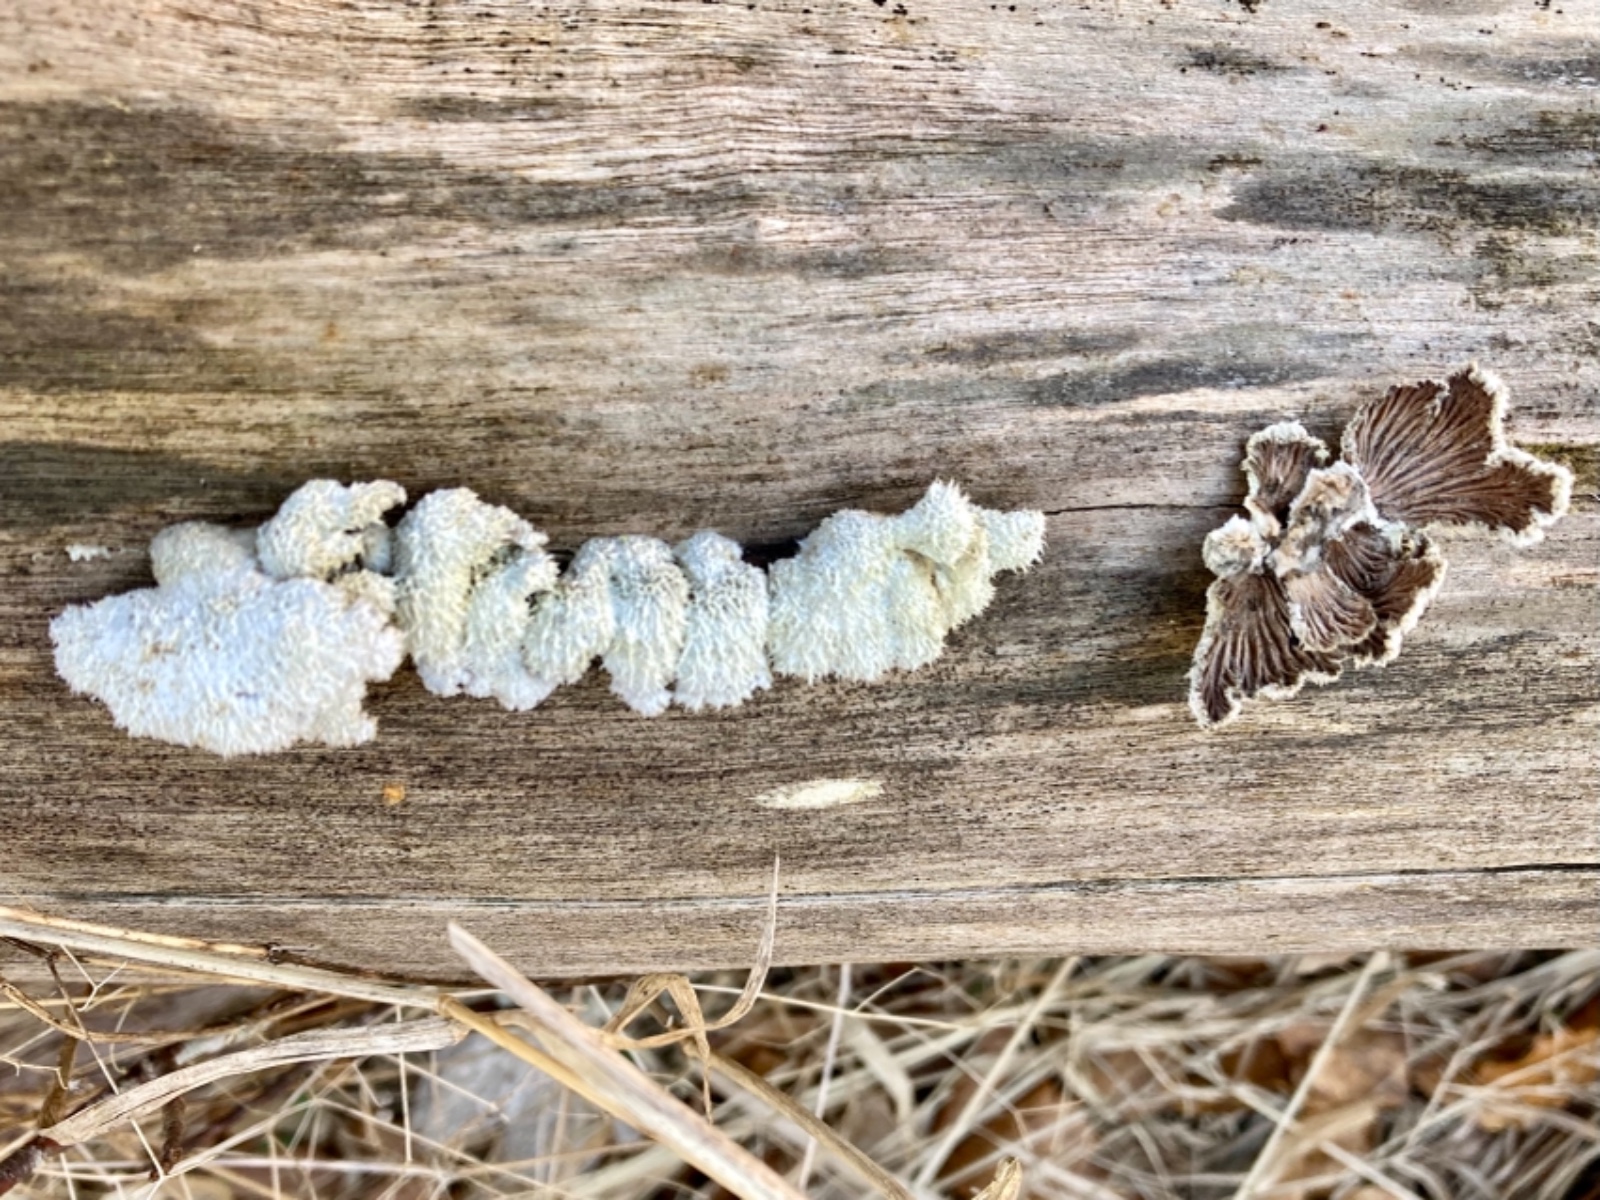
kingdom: Fungi
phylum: Basidiomycota
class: Agaricomycetes
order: Agaricales
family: Schizophyllaceae
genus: Schizophyllum
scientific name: Schizophyllum commune
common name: kløvblad
